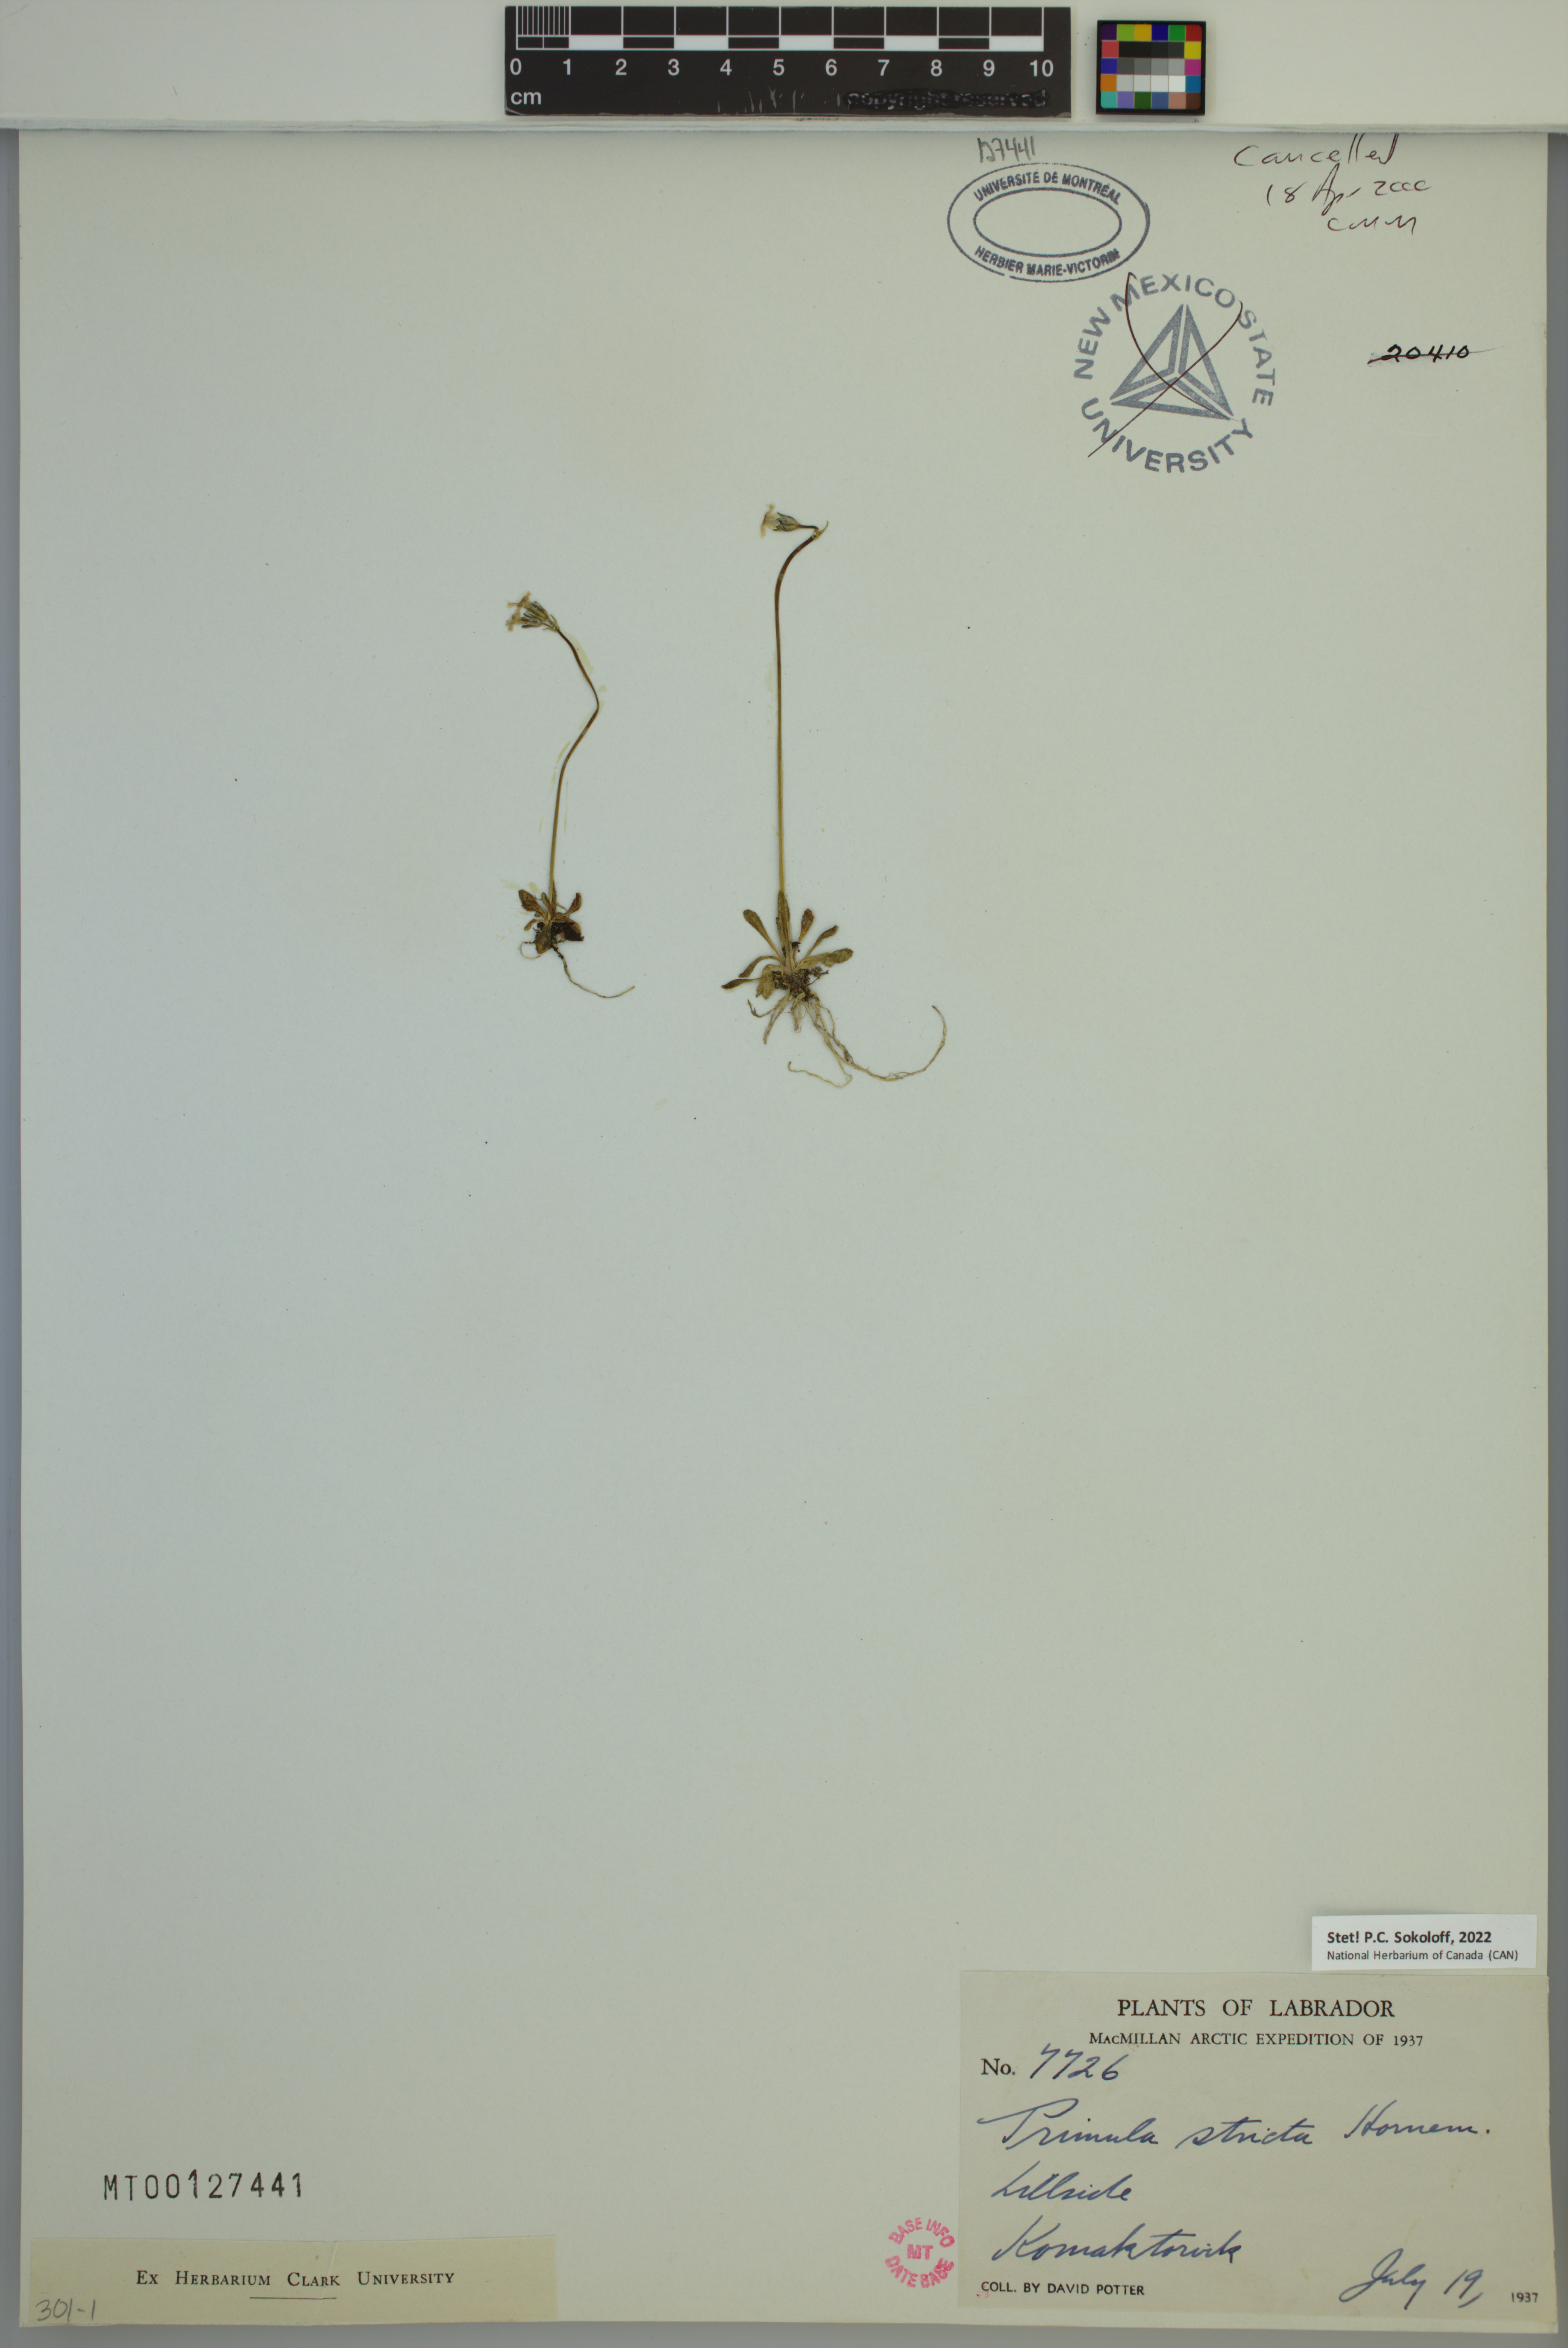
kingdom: Plantae
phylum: Tracheophyta
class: Magnoliopsida
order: Ericales
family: Primulaceae
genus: Primula
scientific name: Primula stricta
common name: Coastal primrose
